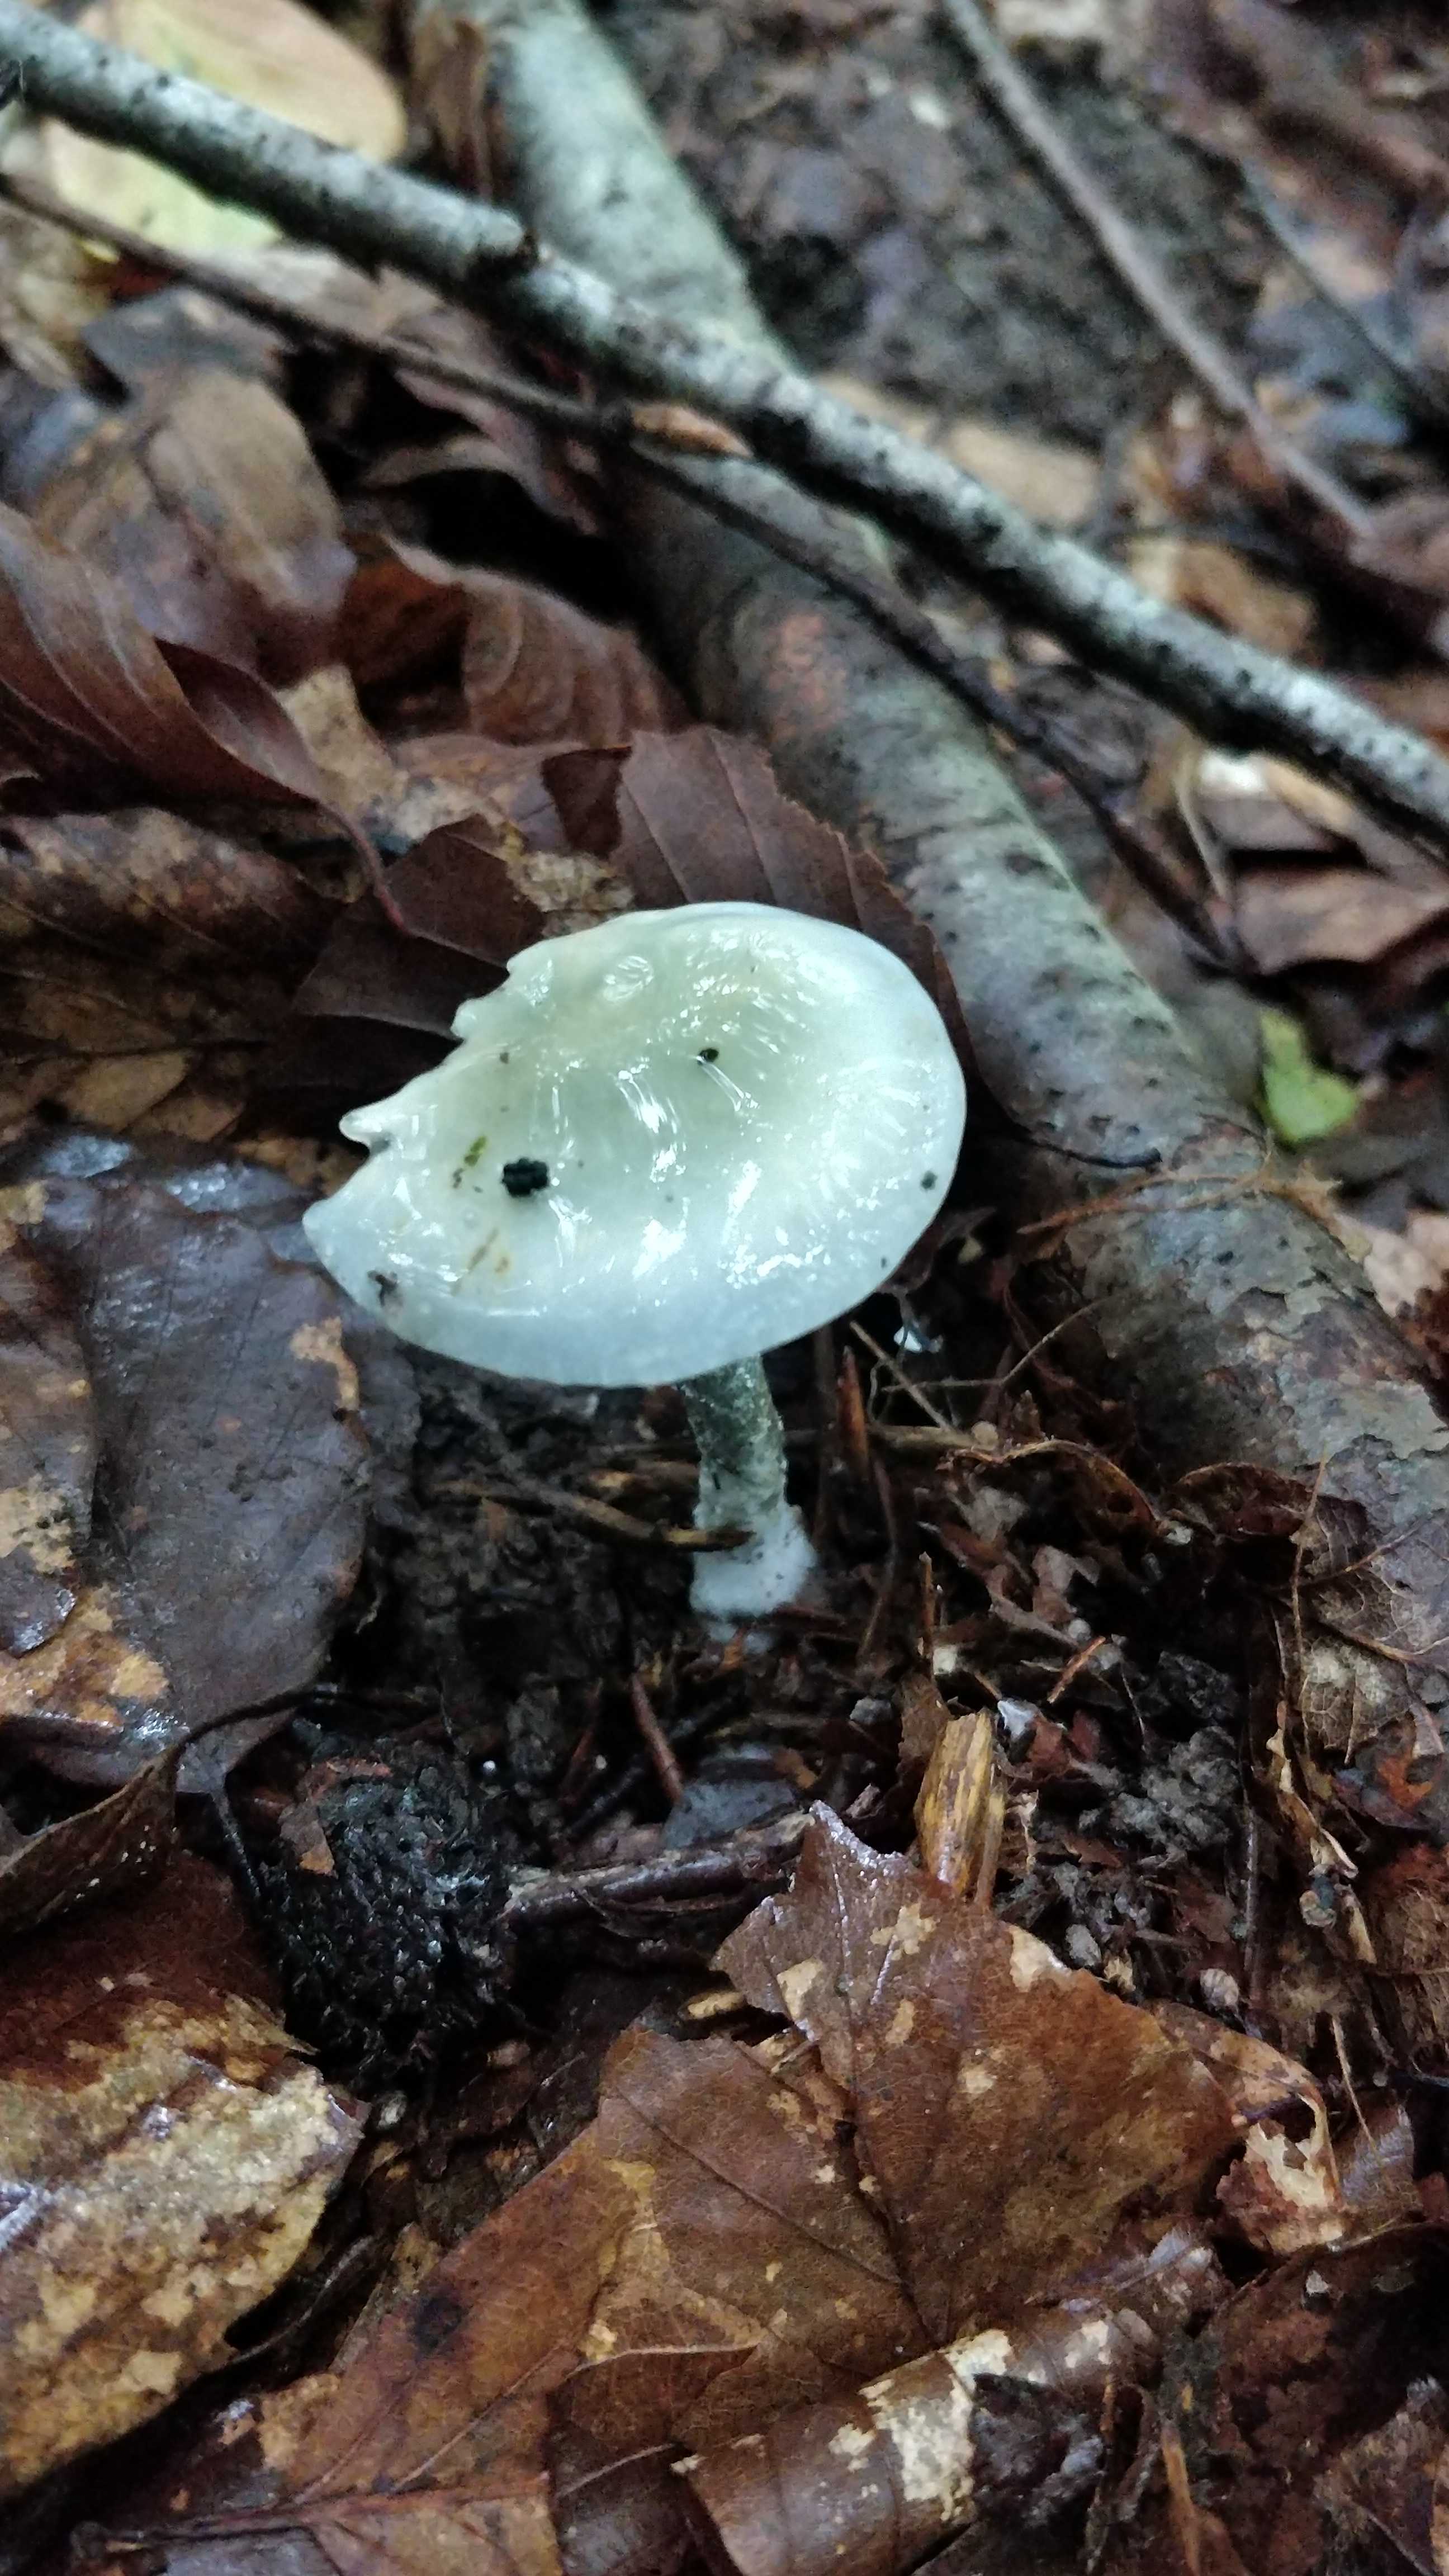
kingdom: Fungi
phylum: Basidiomycota
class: Agaricomycetes
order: Agaricales
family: Strophariaceae
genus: Stropharia
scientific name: Stropharia cyanea
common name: blågrøn bredblad
